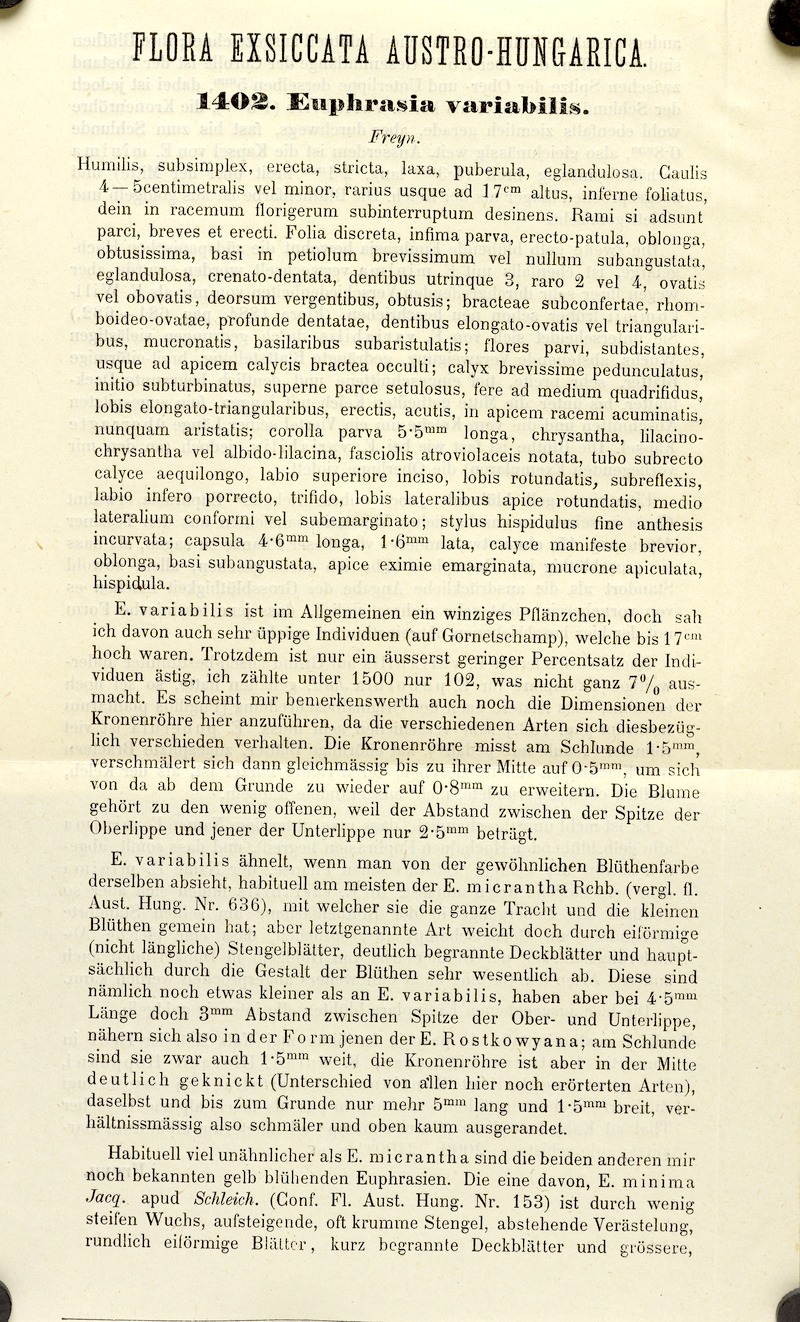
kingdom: Plantae
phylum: Tracheophyta
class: Magnoliopsida
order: Lamiales
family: Orobanchaceae
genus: Euphrasia
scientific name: Euphrasia minima
